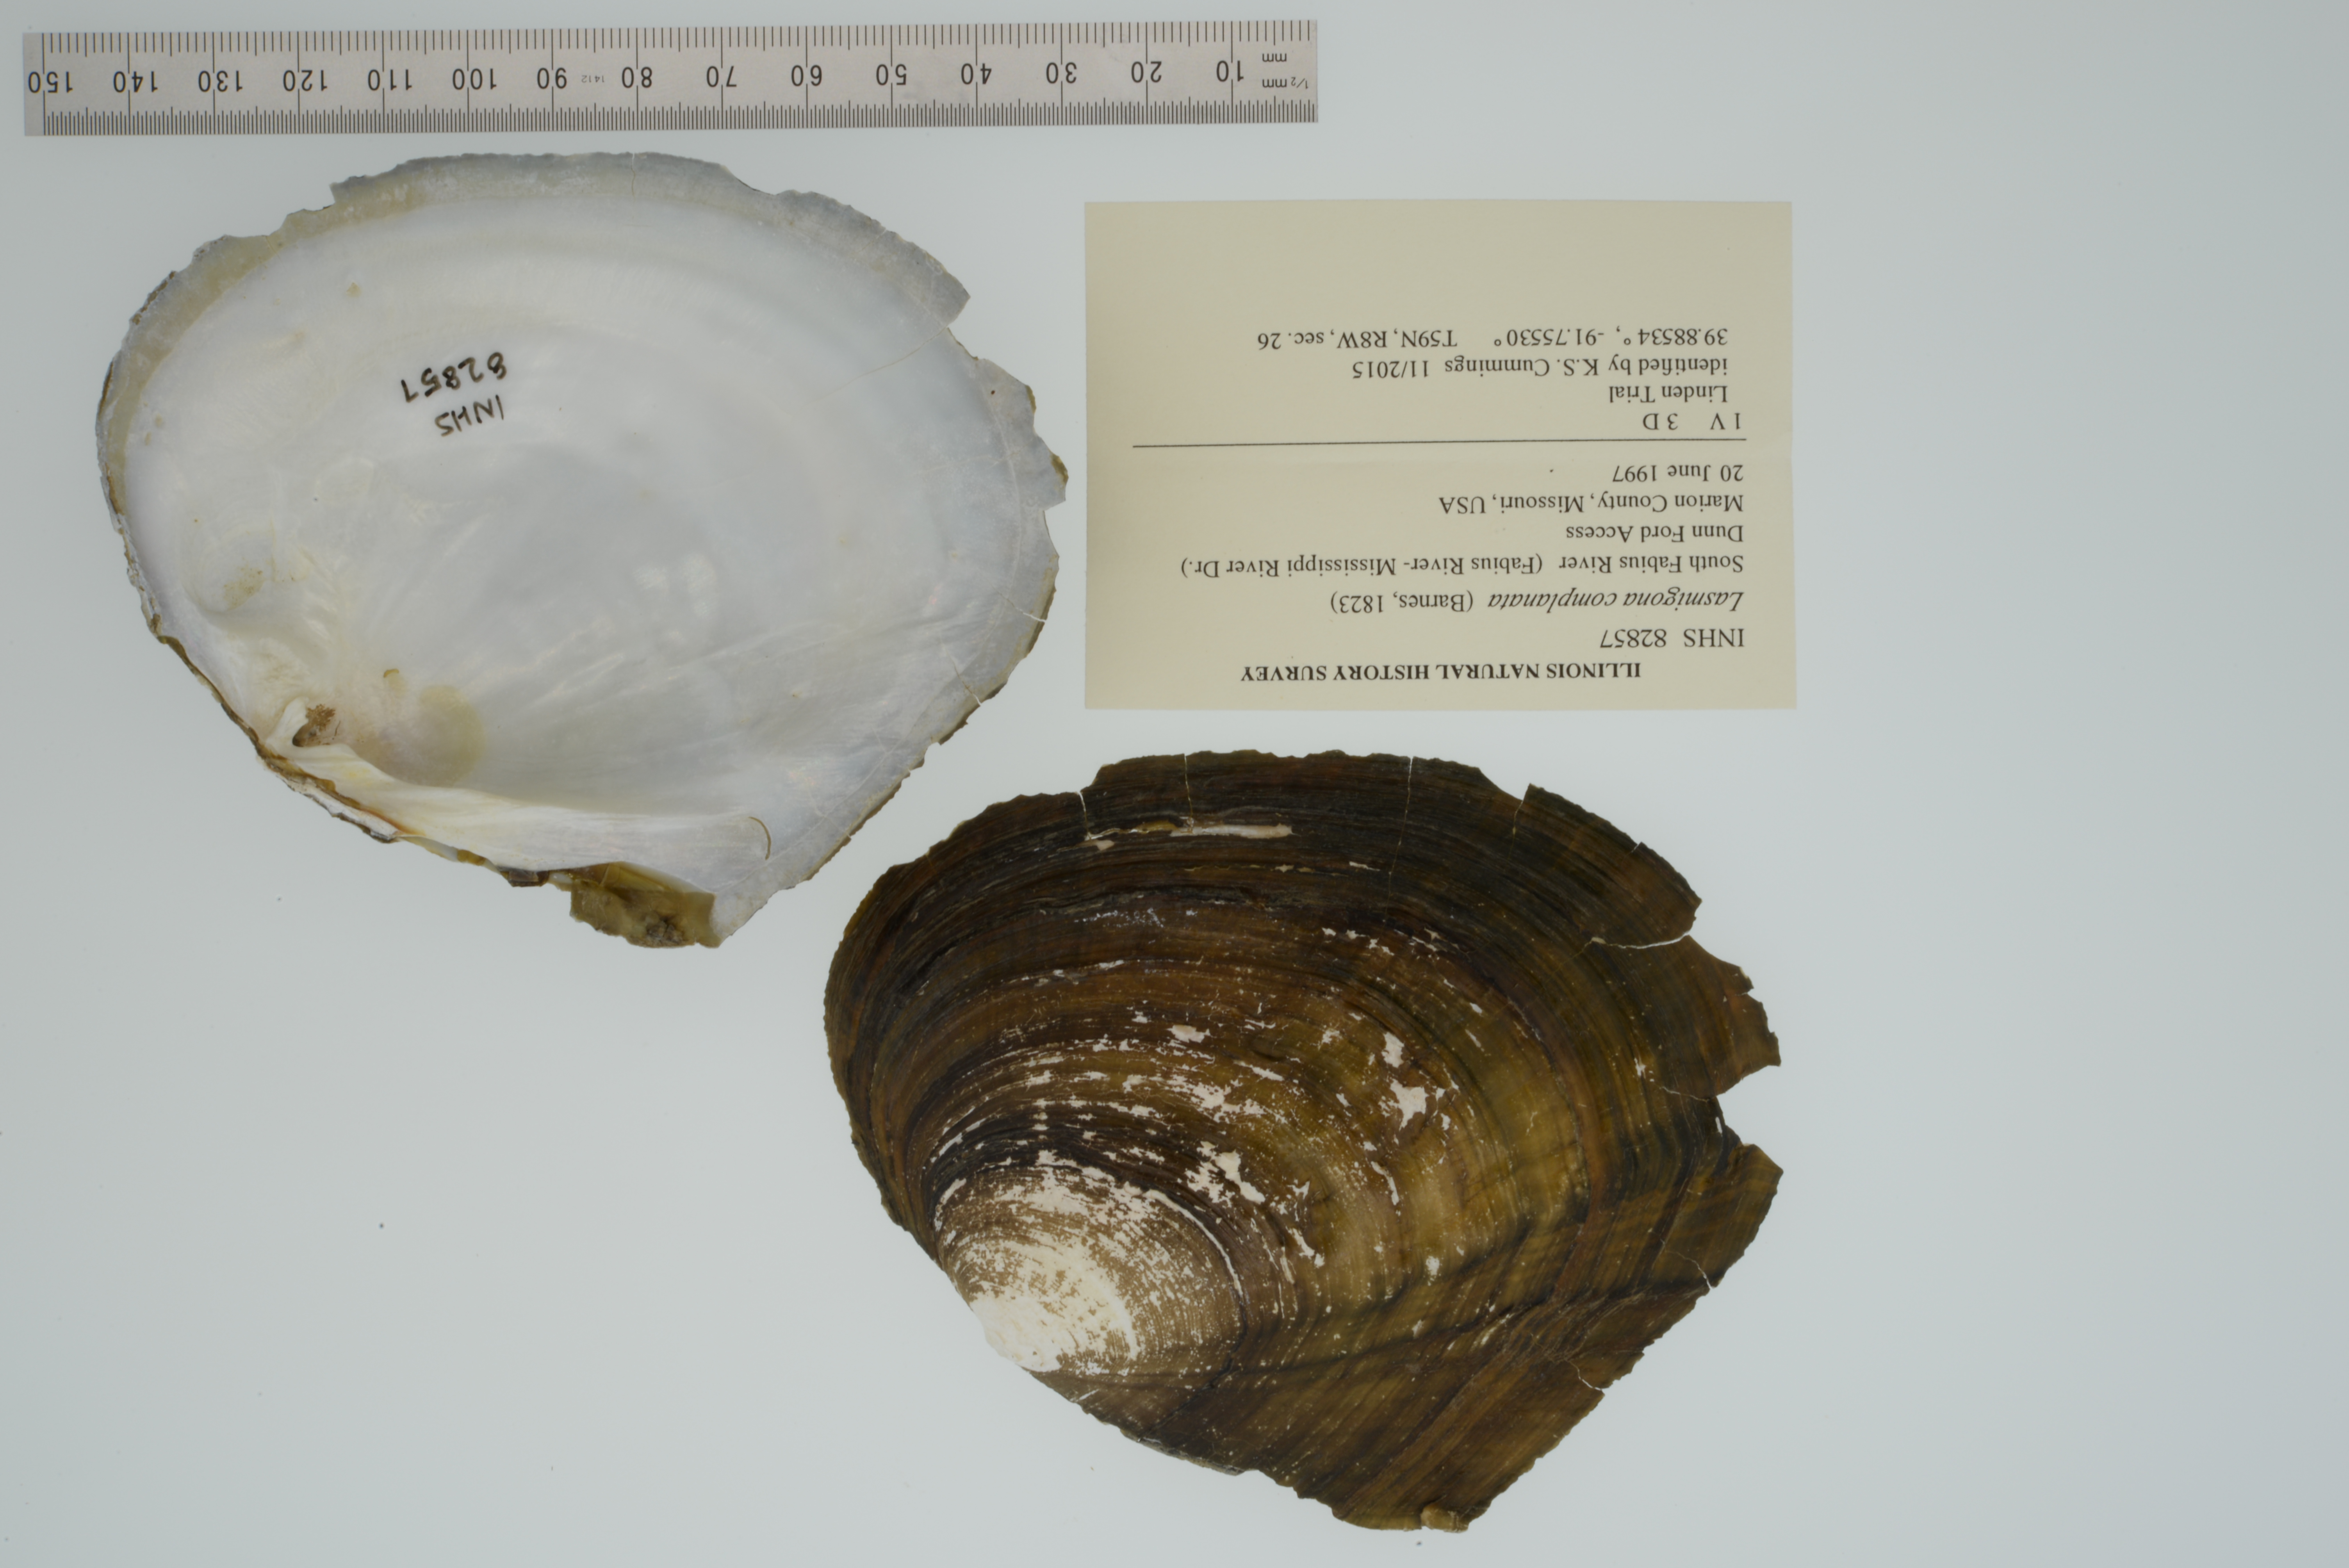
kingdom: Animalia
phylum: Mollusca
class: Bivalvia
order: Unionida
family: Unionidae
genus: Lasmigona
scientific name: Lasmigona complanata
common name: White heelsplitter
